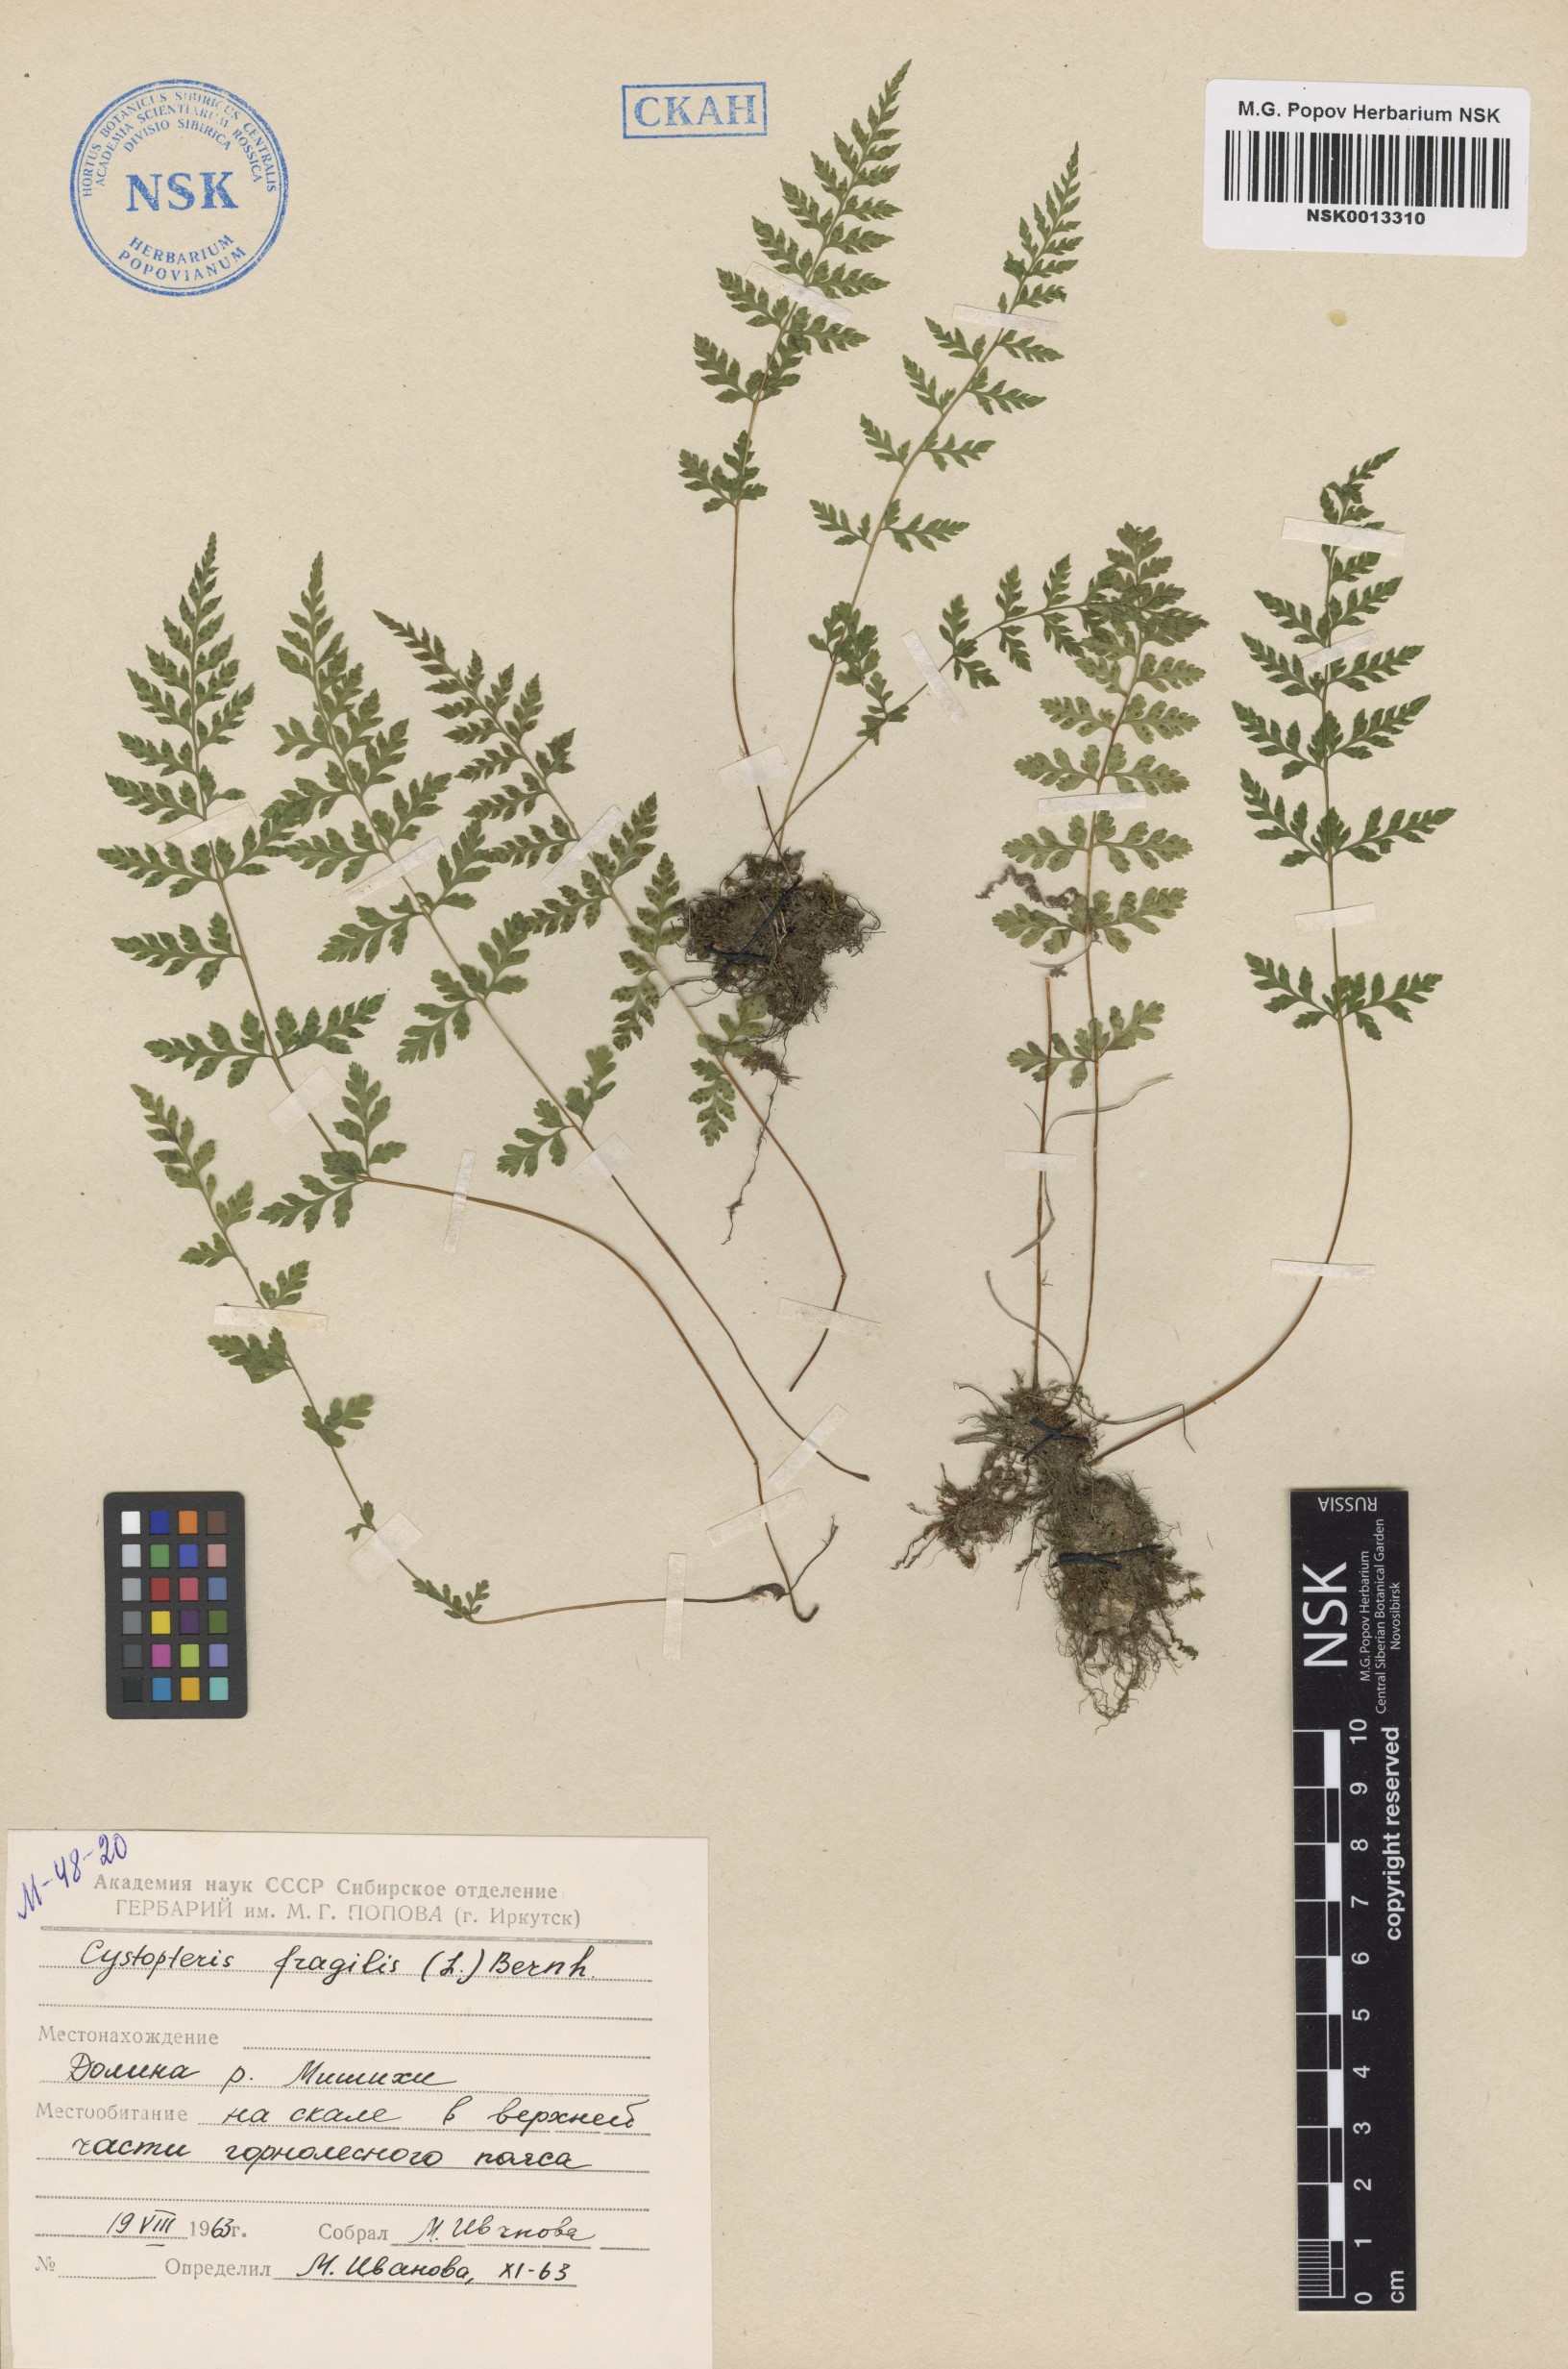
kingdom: Plantae
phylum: Tracheophyta
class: Polypodiopsida
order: Polypodiales
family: Cystopteridaceae
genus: Cystopteris
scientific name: Cystopteris fragilis
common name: Brittle bladder fern
